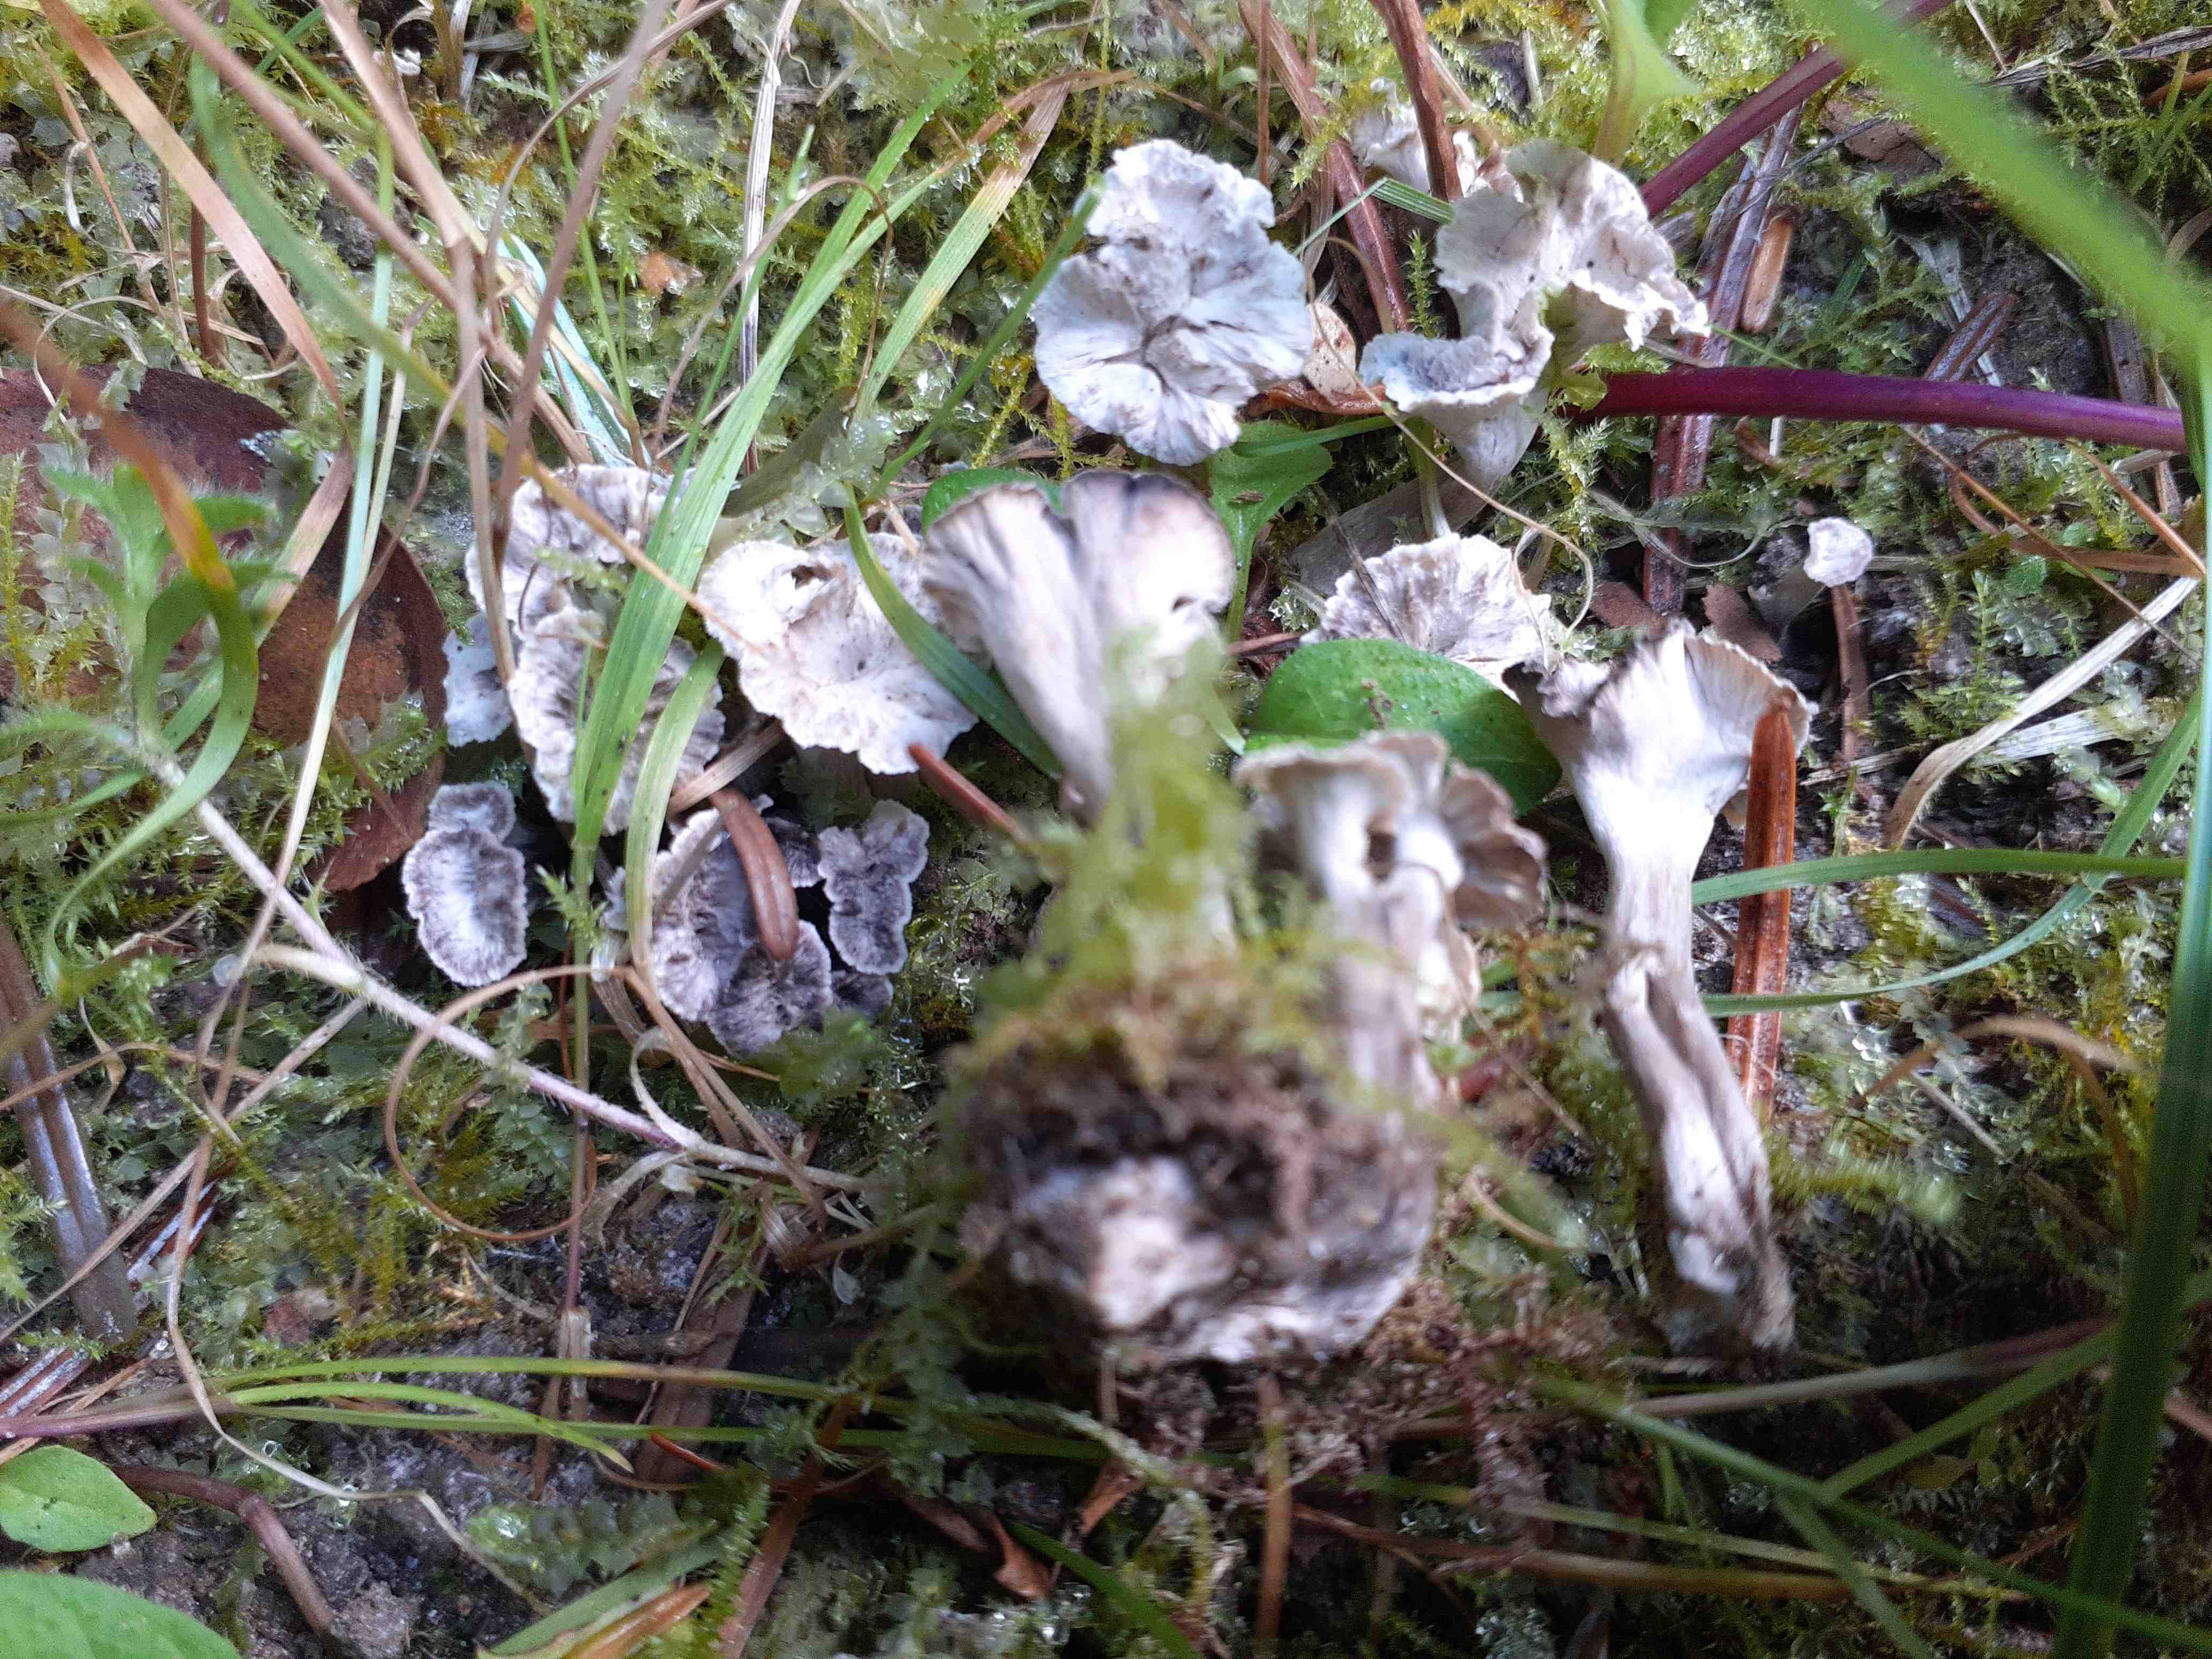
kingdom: Fungi
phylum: Basidiomycota
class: Agaricomycetes
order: Cantharellales
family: Hydnaceae
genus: Craterellus
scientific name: Craterellus undulatus
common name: liden kantarel
